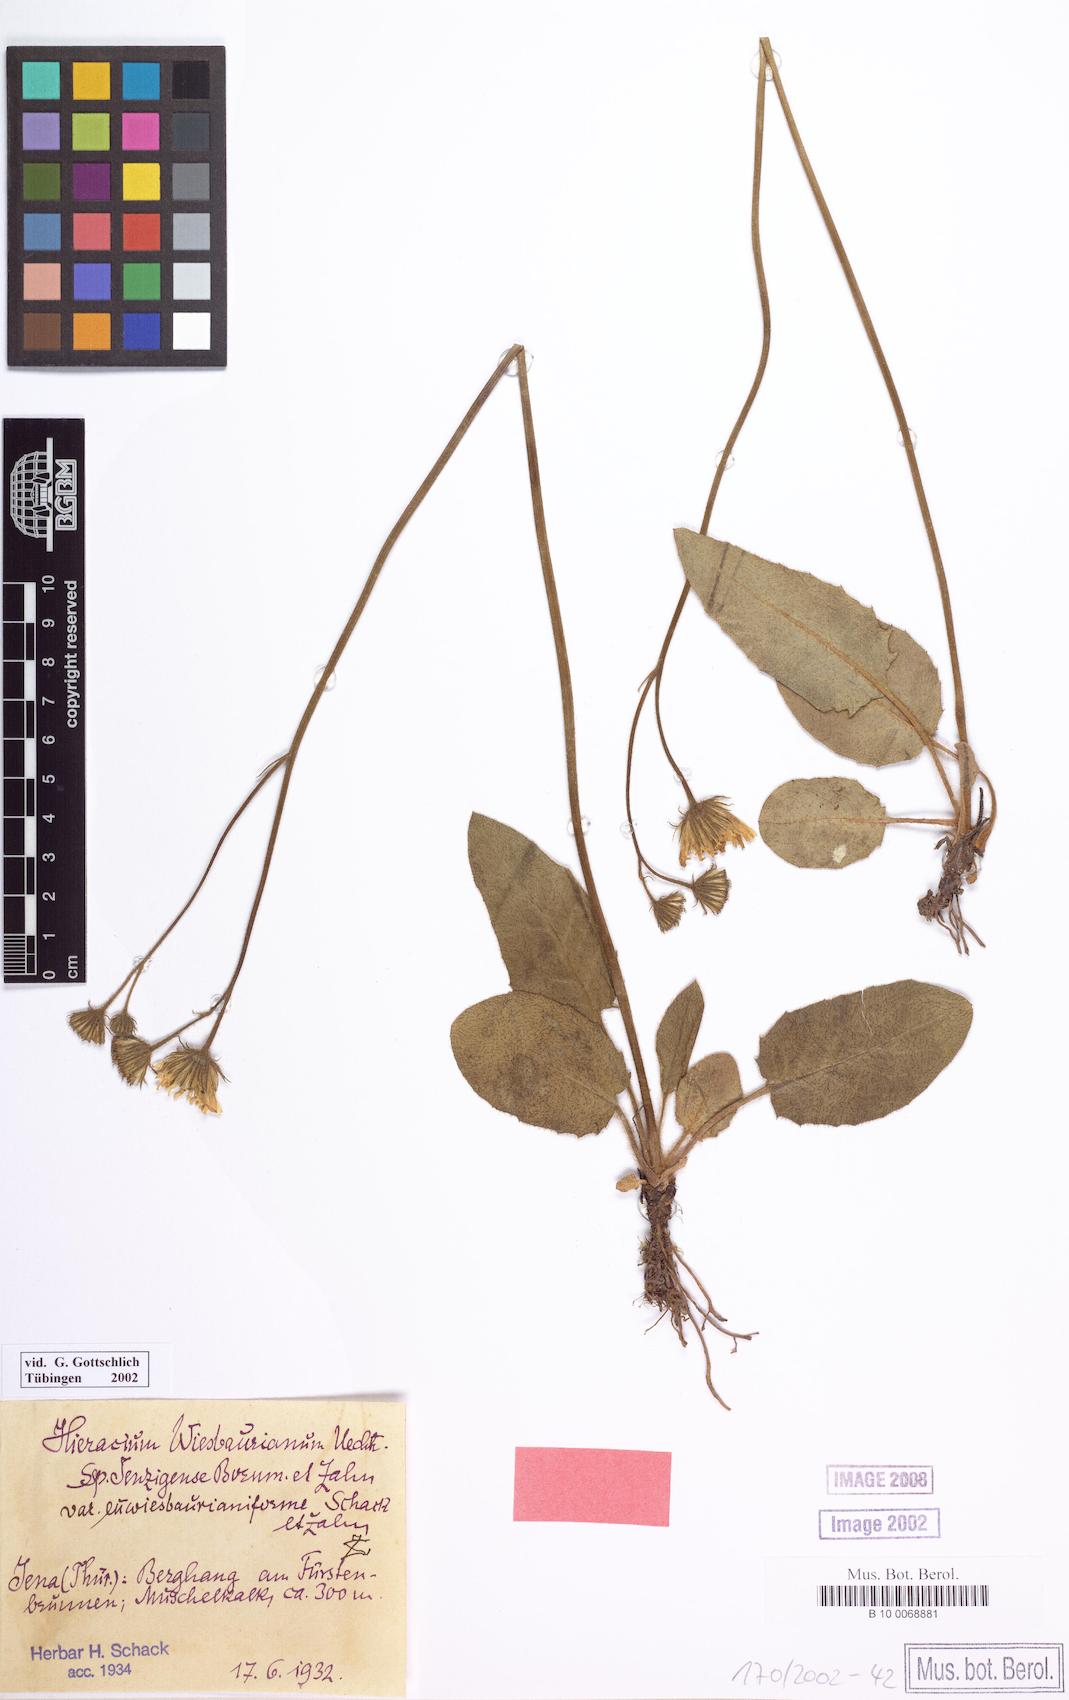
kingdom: Plantae
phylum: Tracheophyta
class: Magnoliopsida
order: Asterales
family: Asteraceae
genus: Hieracium
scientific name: Hieracium hypochoeroides
